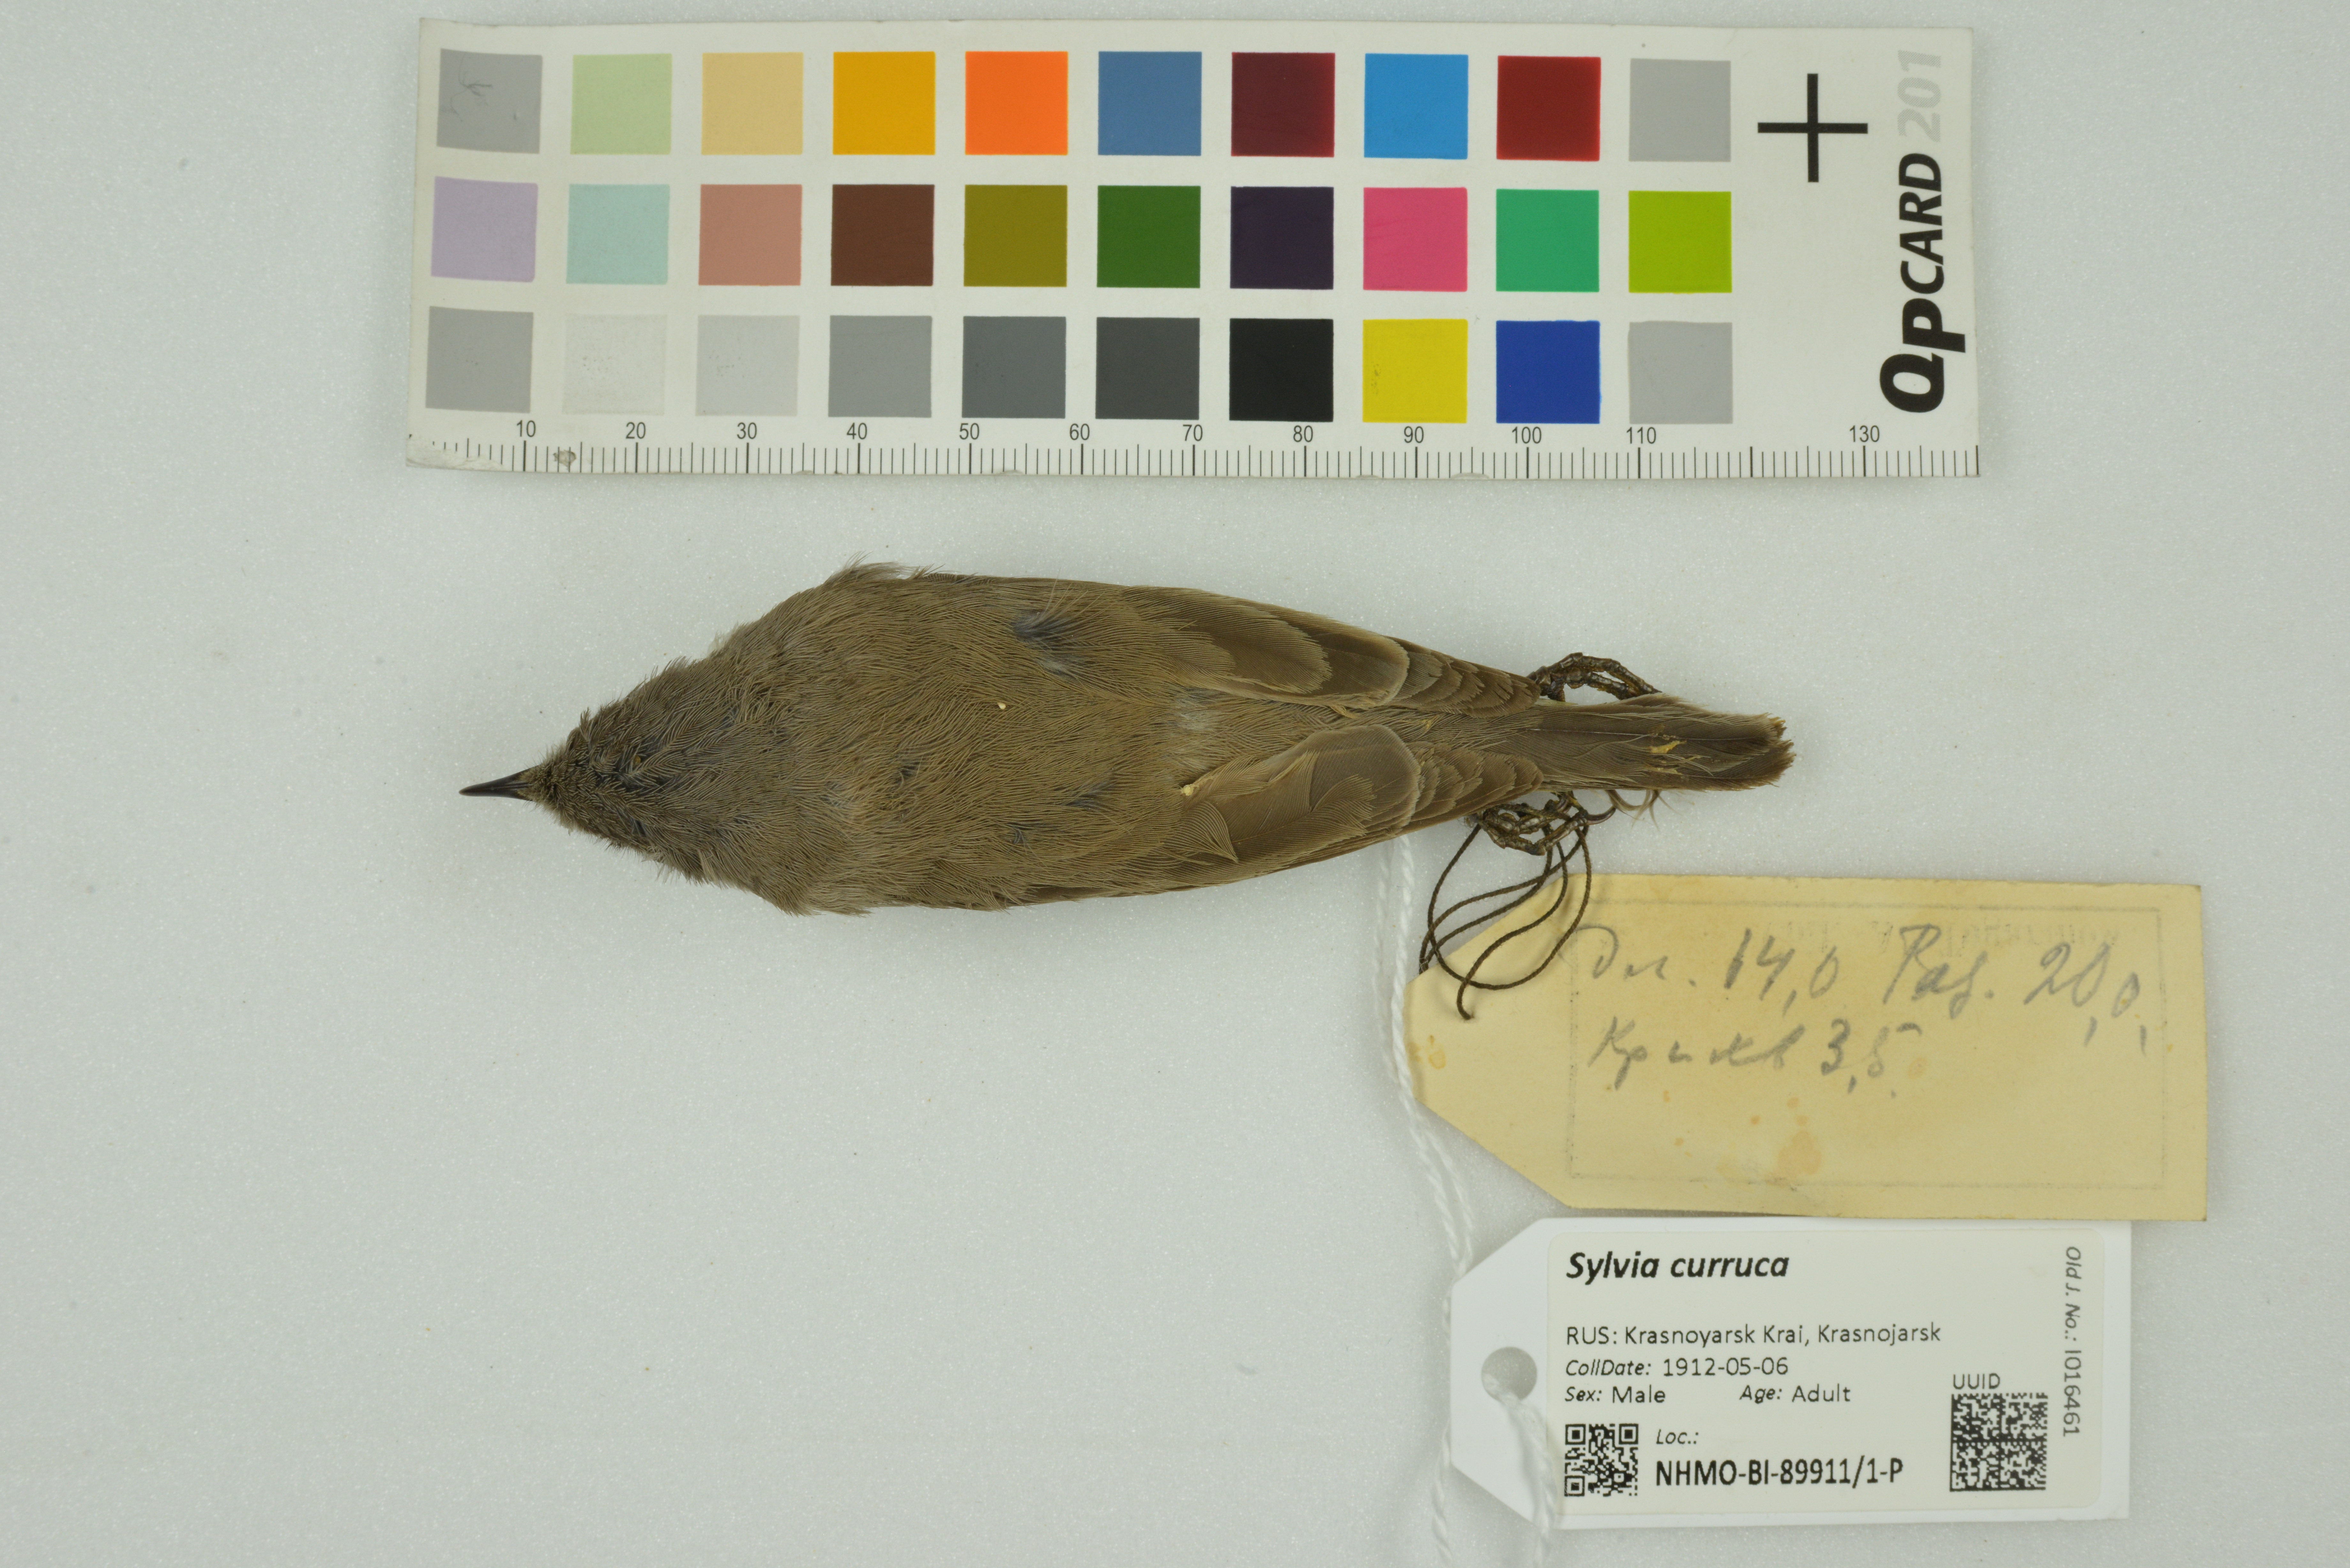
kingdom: Animalia
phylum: Chordata
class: Aves
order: Passeriformes
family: Sylviidae
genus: Sylvia
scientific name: Sylvia curruca
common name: Lesser whitethroat
